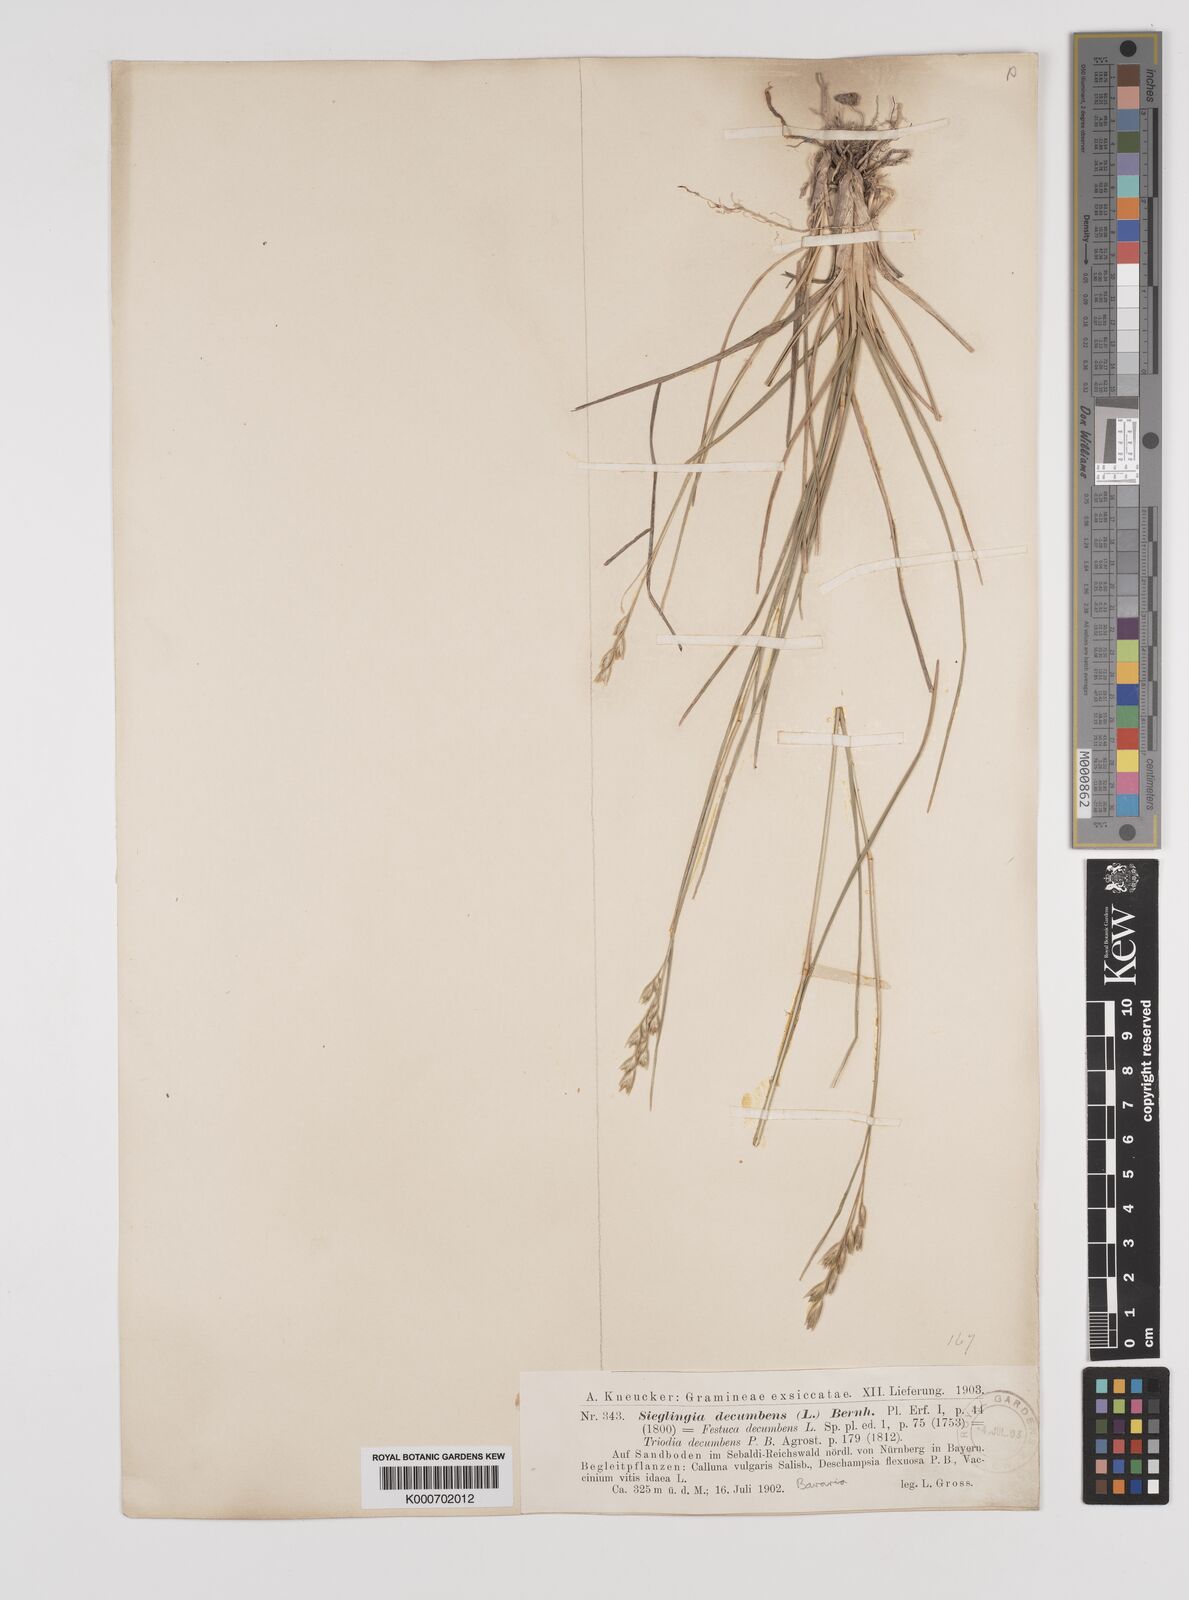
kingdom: Plantae
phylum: Tracheophyta
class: Liliopsida
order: Poales
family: Poaceae
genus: Danthonia
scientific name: Danthonia decumbens
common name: Common heathgrass
